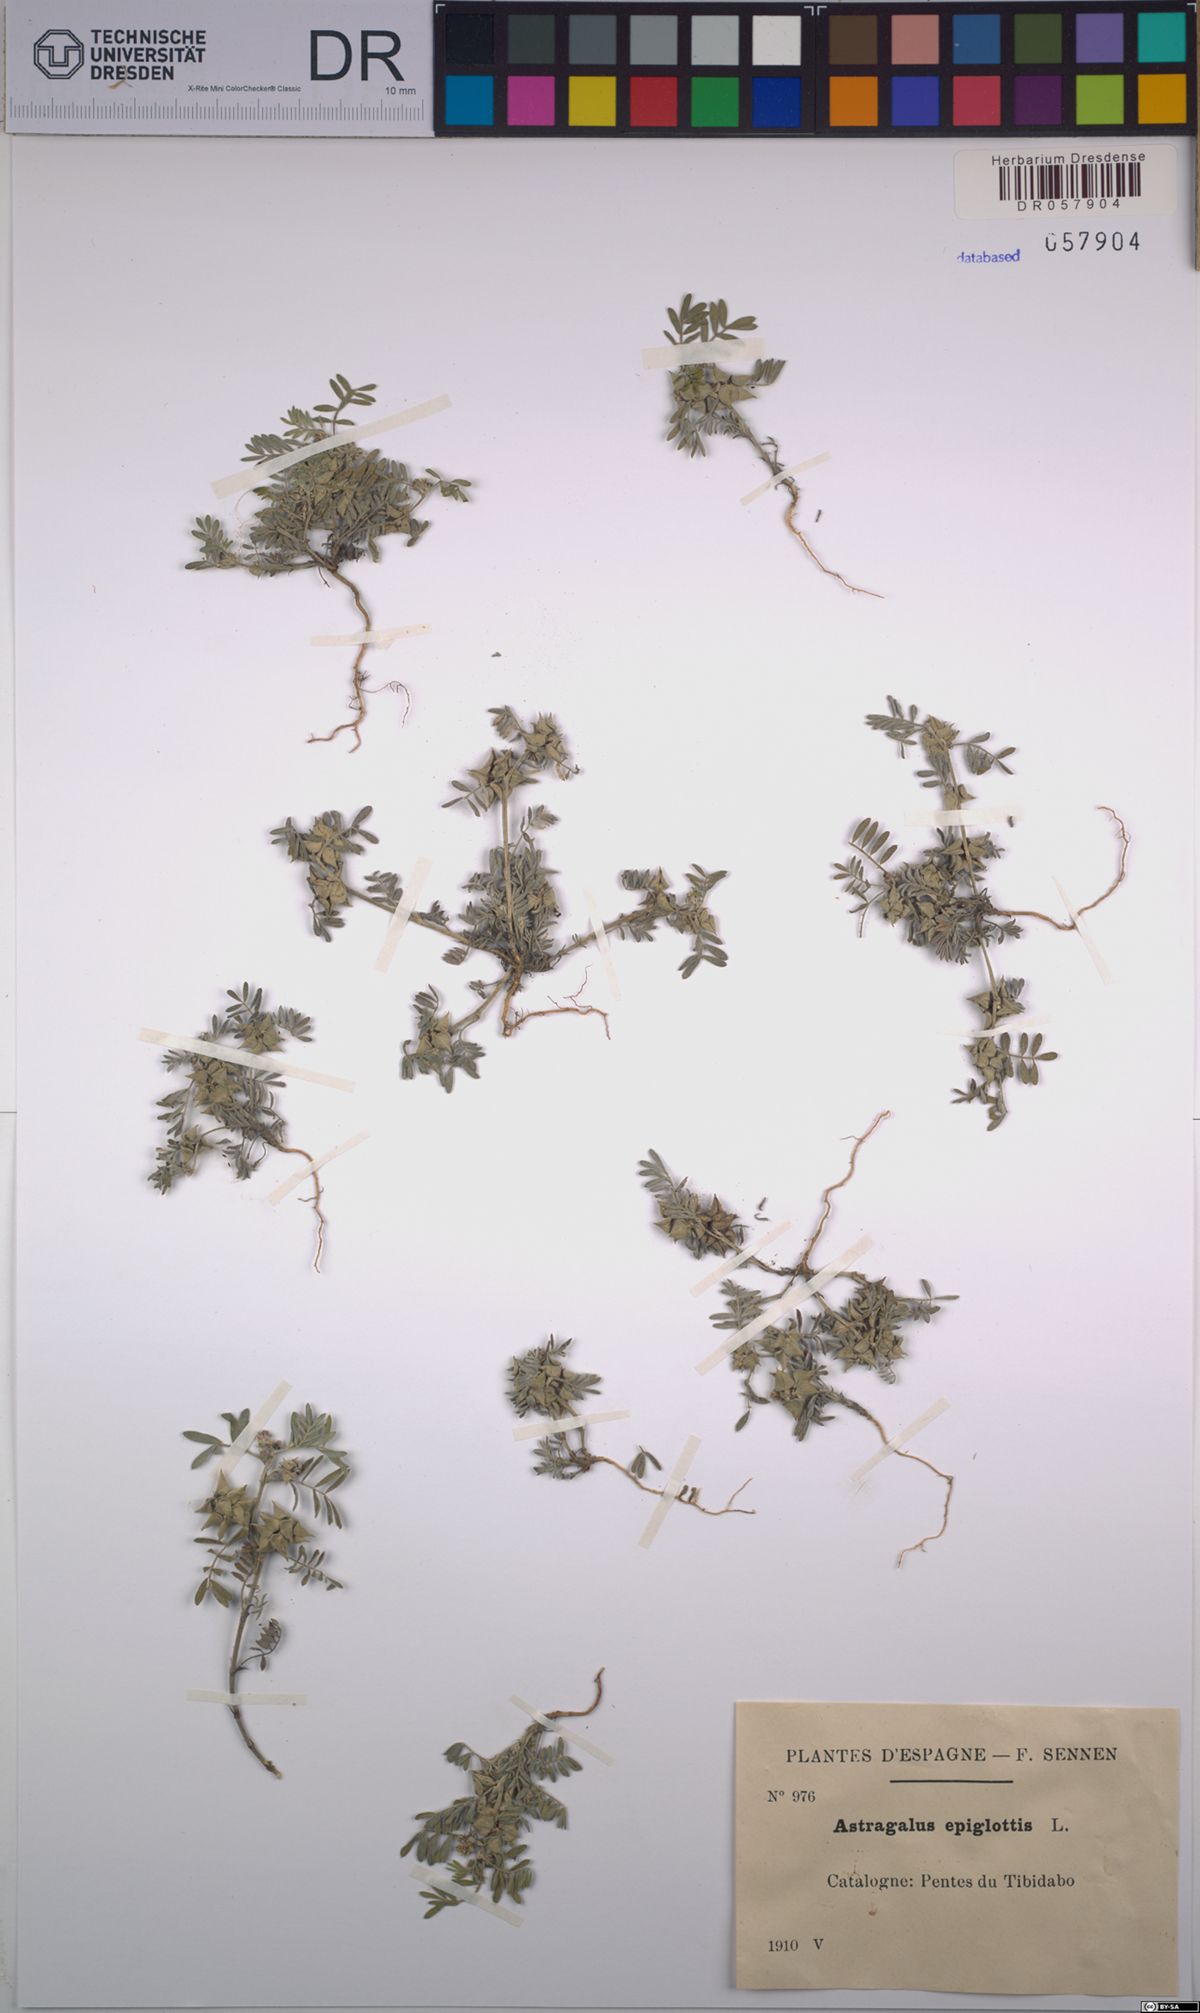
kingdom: Plantae
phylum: Tracheophyta
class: Magnoliopsida
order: Fabales
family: Fabaceae
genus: Biserrula
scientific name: Biserrula epiglottis
